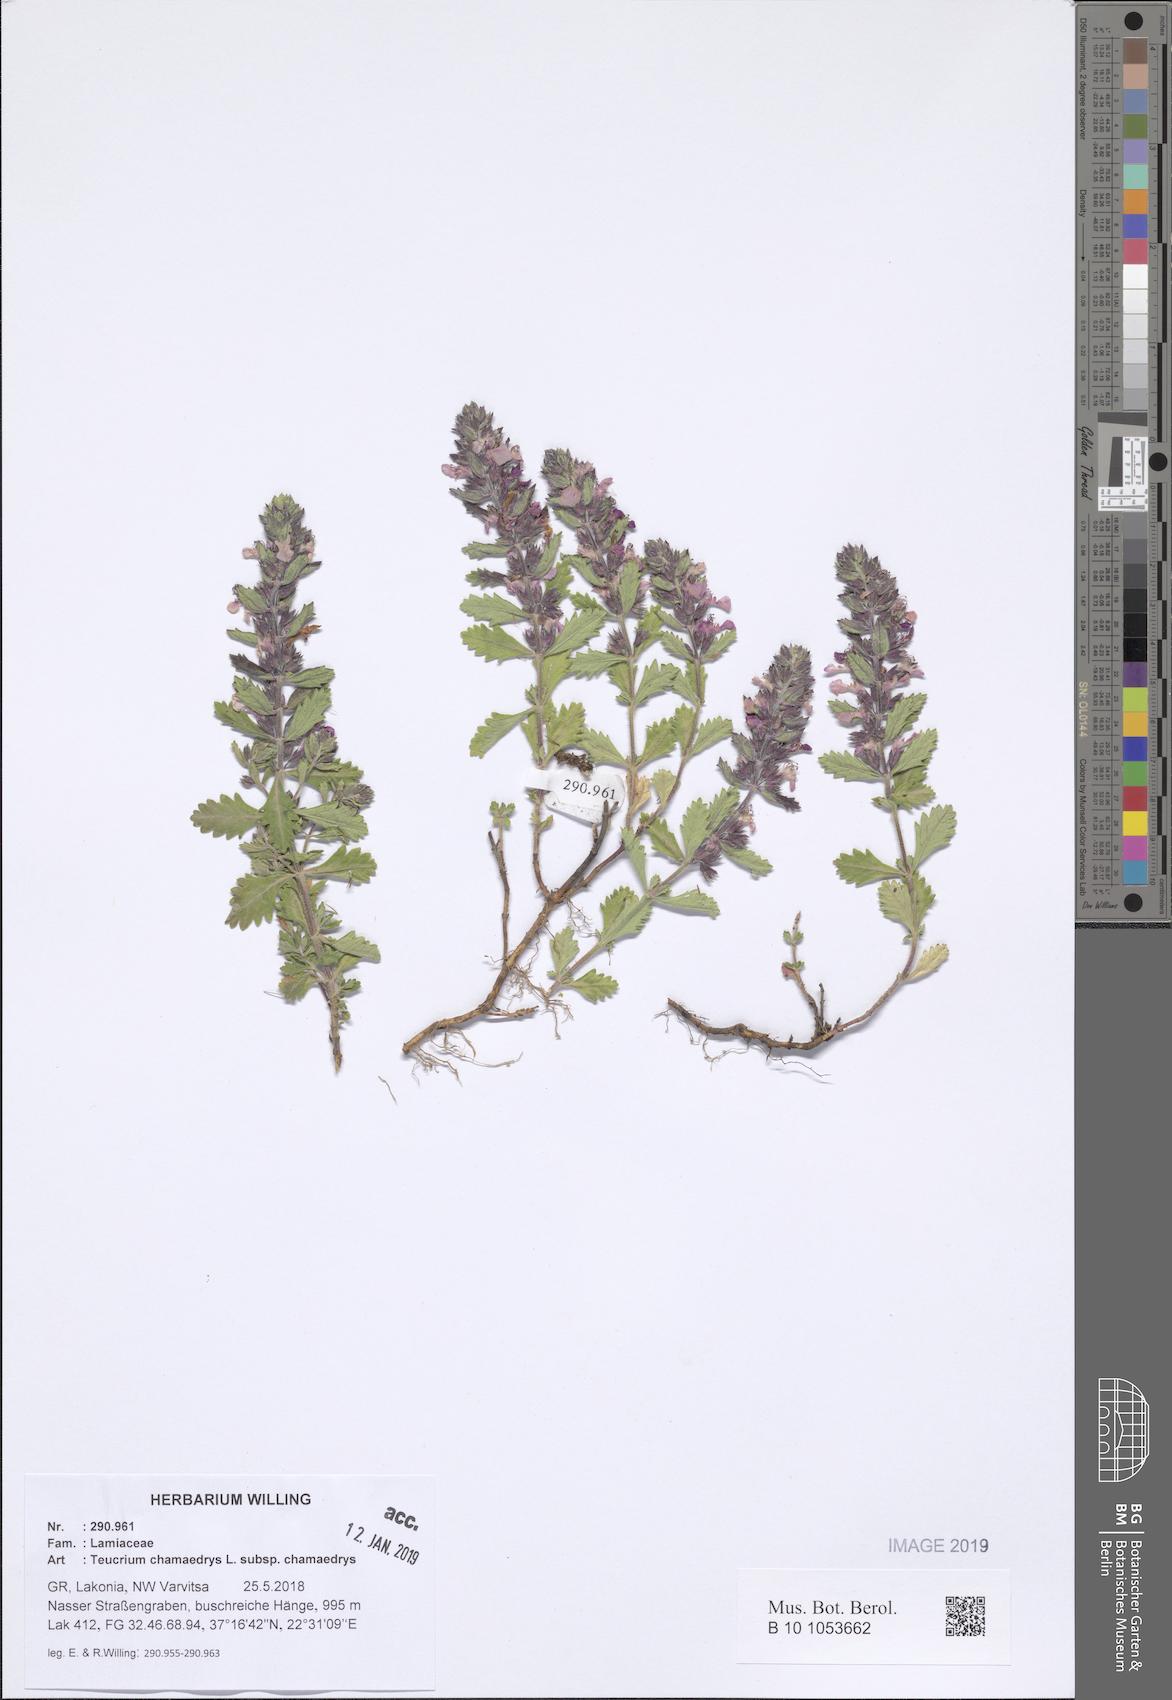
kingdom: Plantae
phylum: Tracheophyta
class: Magnoliopsida
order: Lamiales
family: Lamiaceae
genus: Teucrium
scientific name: Teucrium chamaedrys
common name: Wall germander
